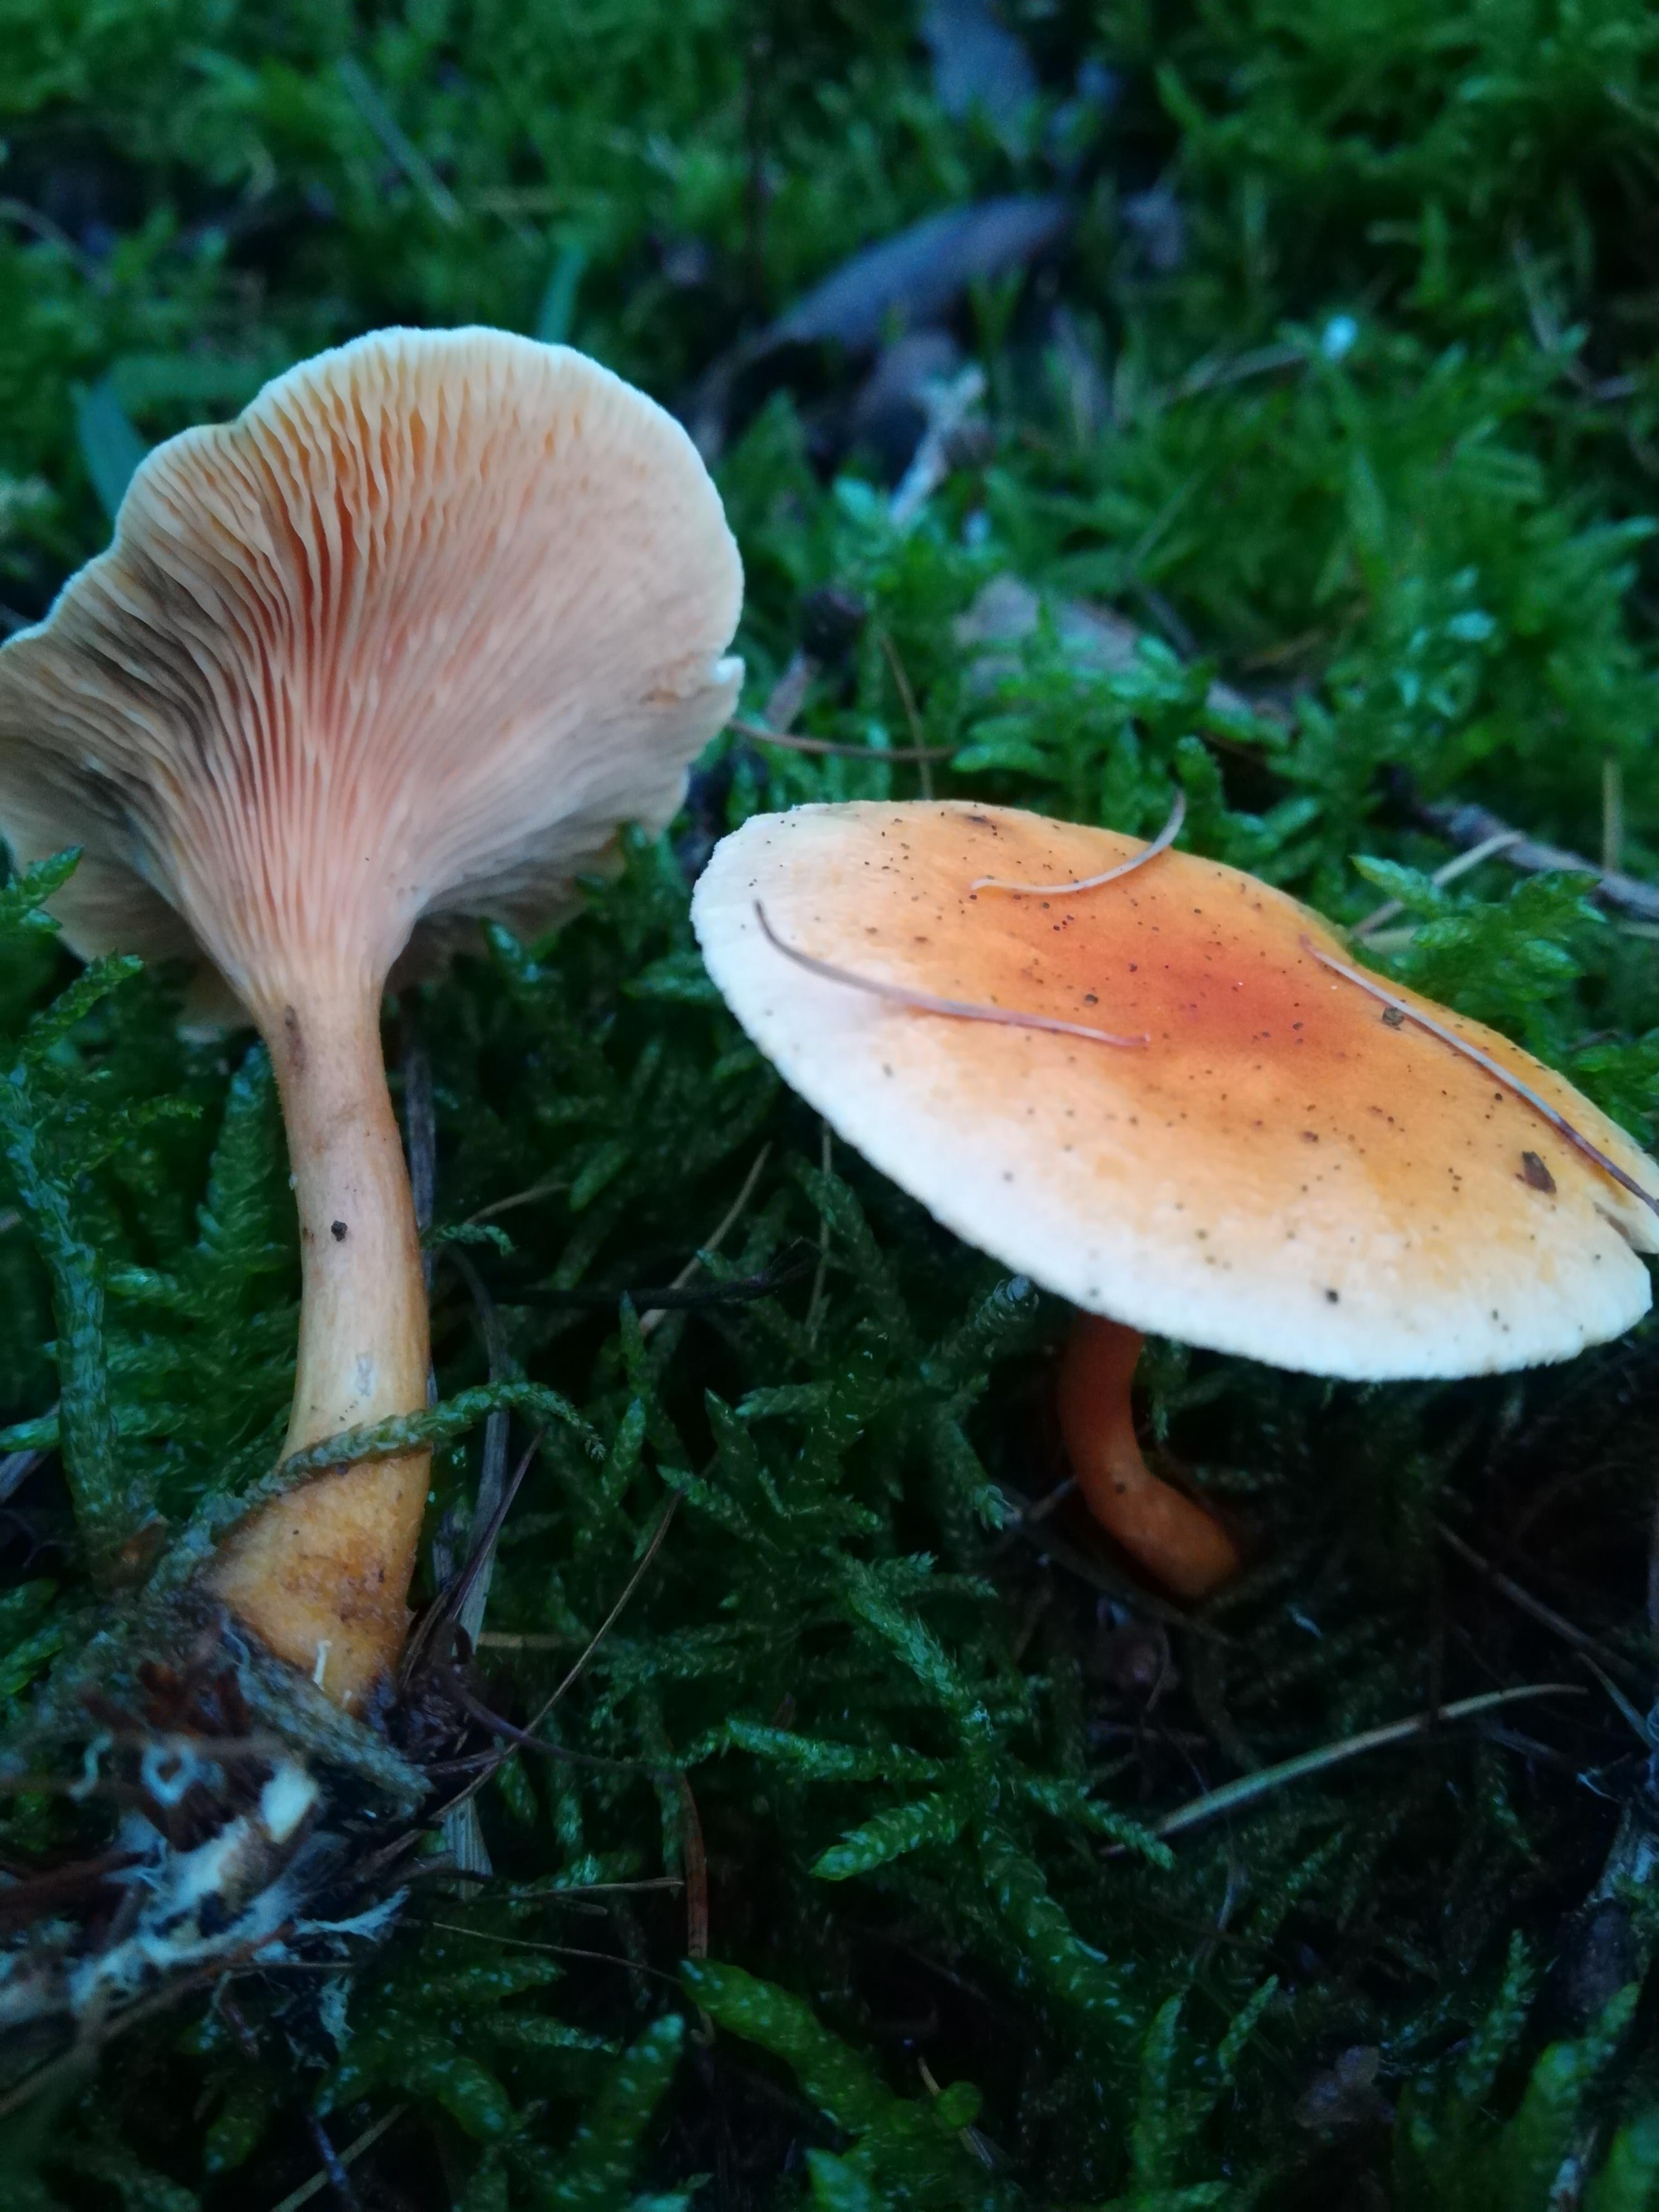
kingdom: Fungi
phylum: Basidiomycota
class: Agaricomycetes
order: Boletales
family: Hygrophoropsidaceae
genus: Hygrophoropsis
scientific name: Hygrophoropsis aurantiaca
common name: almindelig orangekantarel
